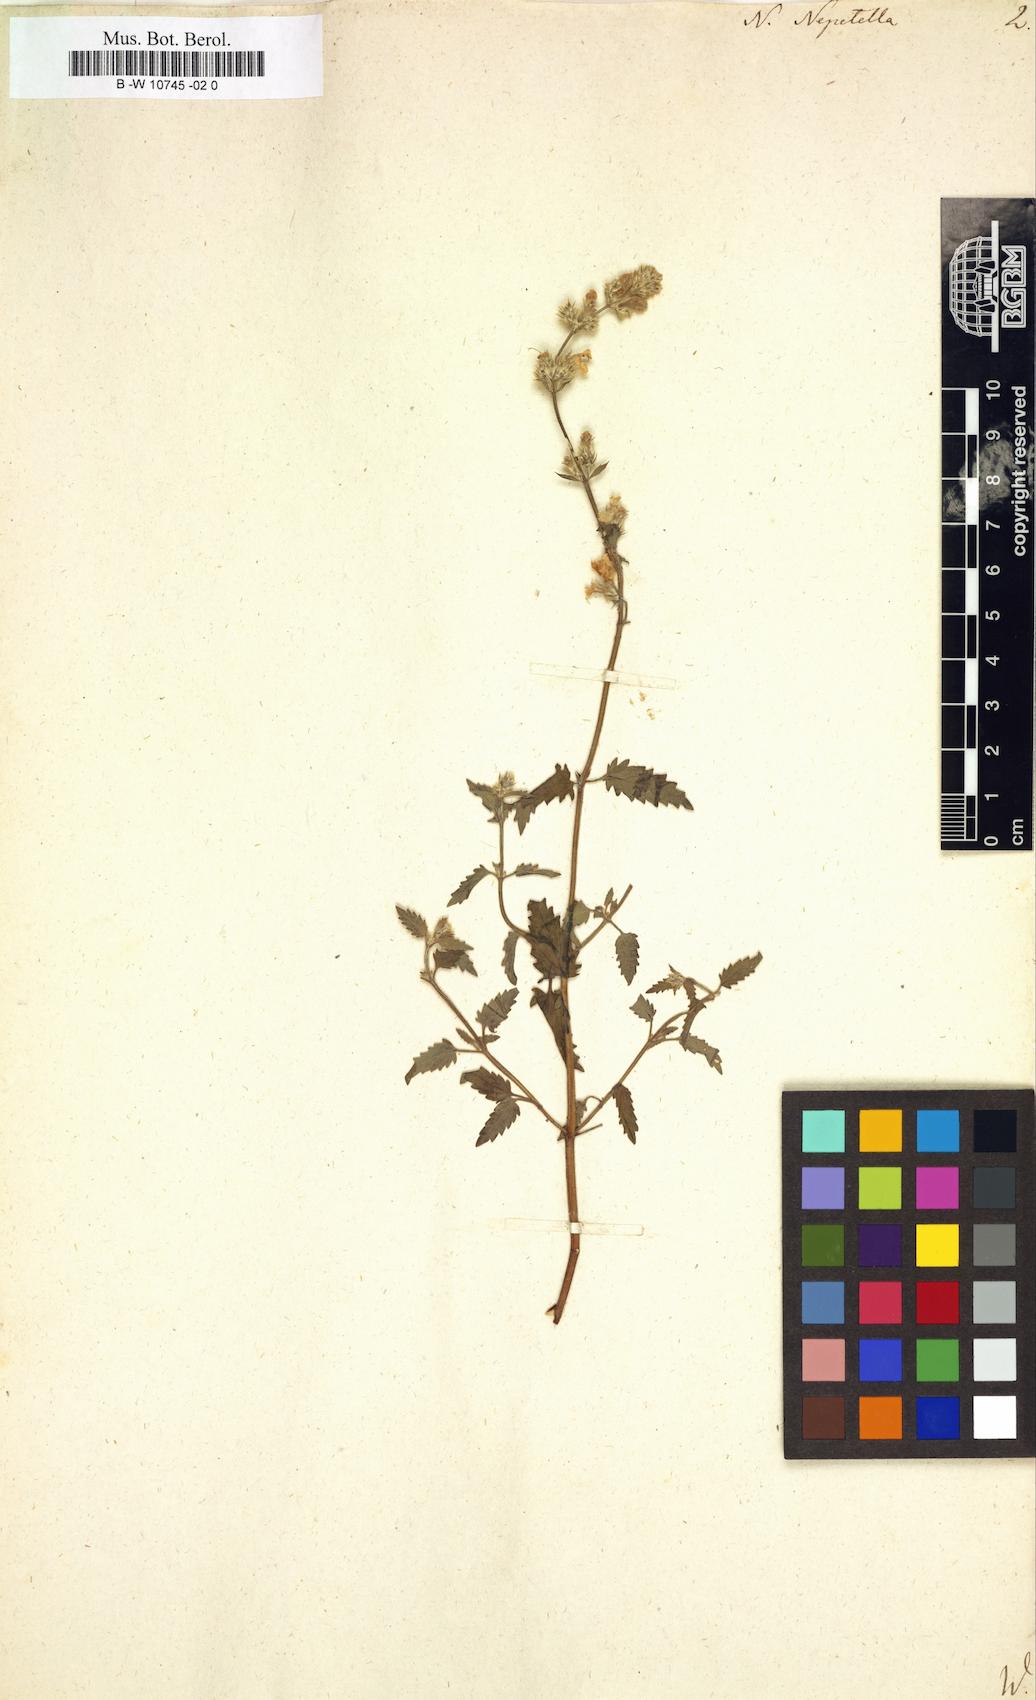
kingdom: Plantae
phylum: Tracheophyta
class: Magnoliopsida
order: Lamiales
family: Lamiaceae
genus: Nepeta
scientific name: Nepeta nepetella
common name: Lesser catmint
